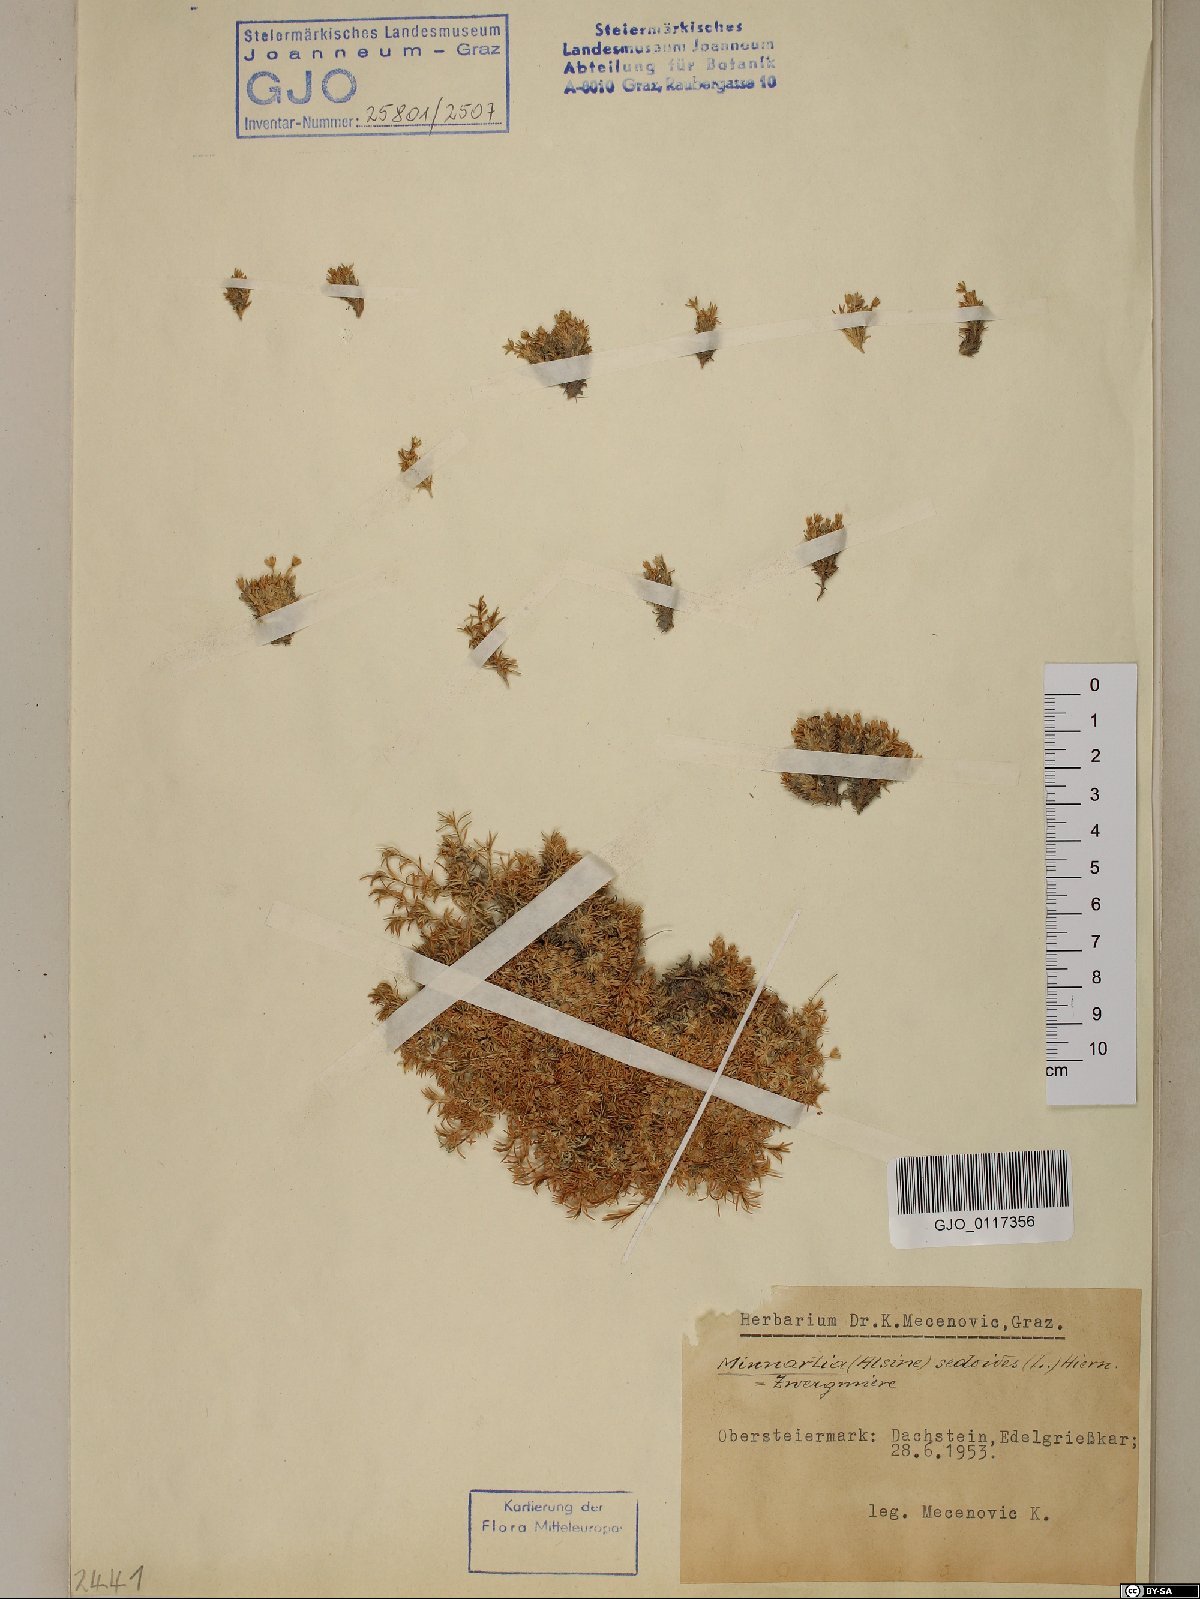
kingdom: Plantae
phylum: Tracheophyta
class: Magnoliopsida
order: Caryophyllales
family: Caryophyllaceae
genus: Cherleria
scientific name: Cherleria sedoides
